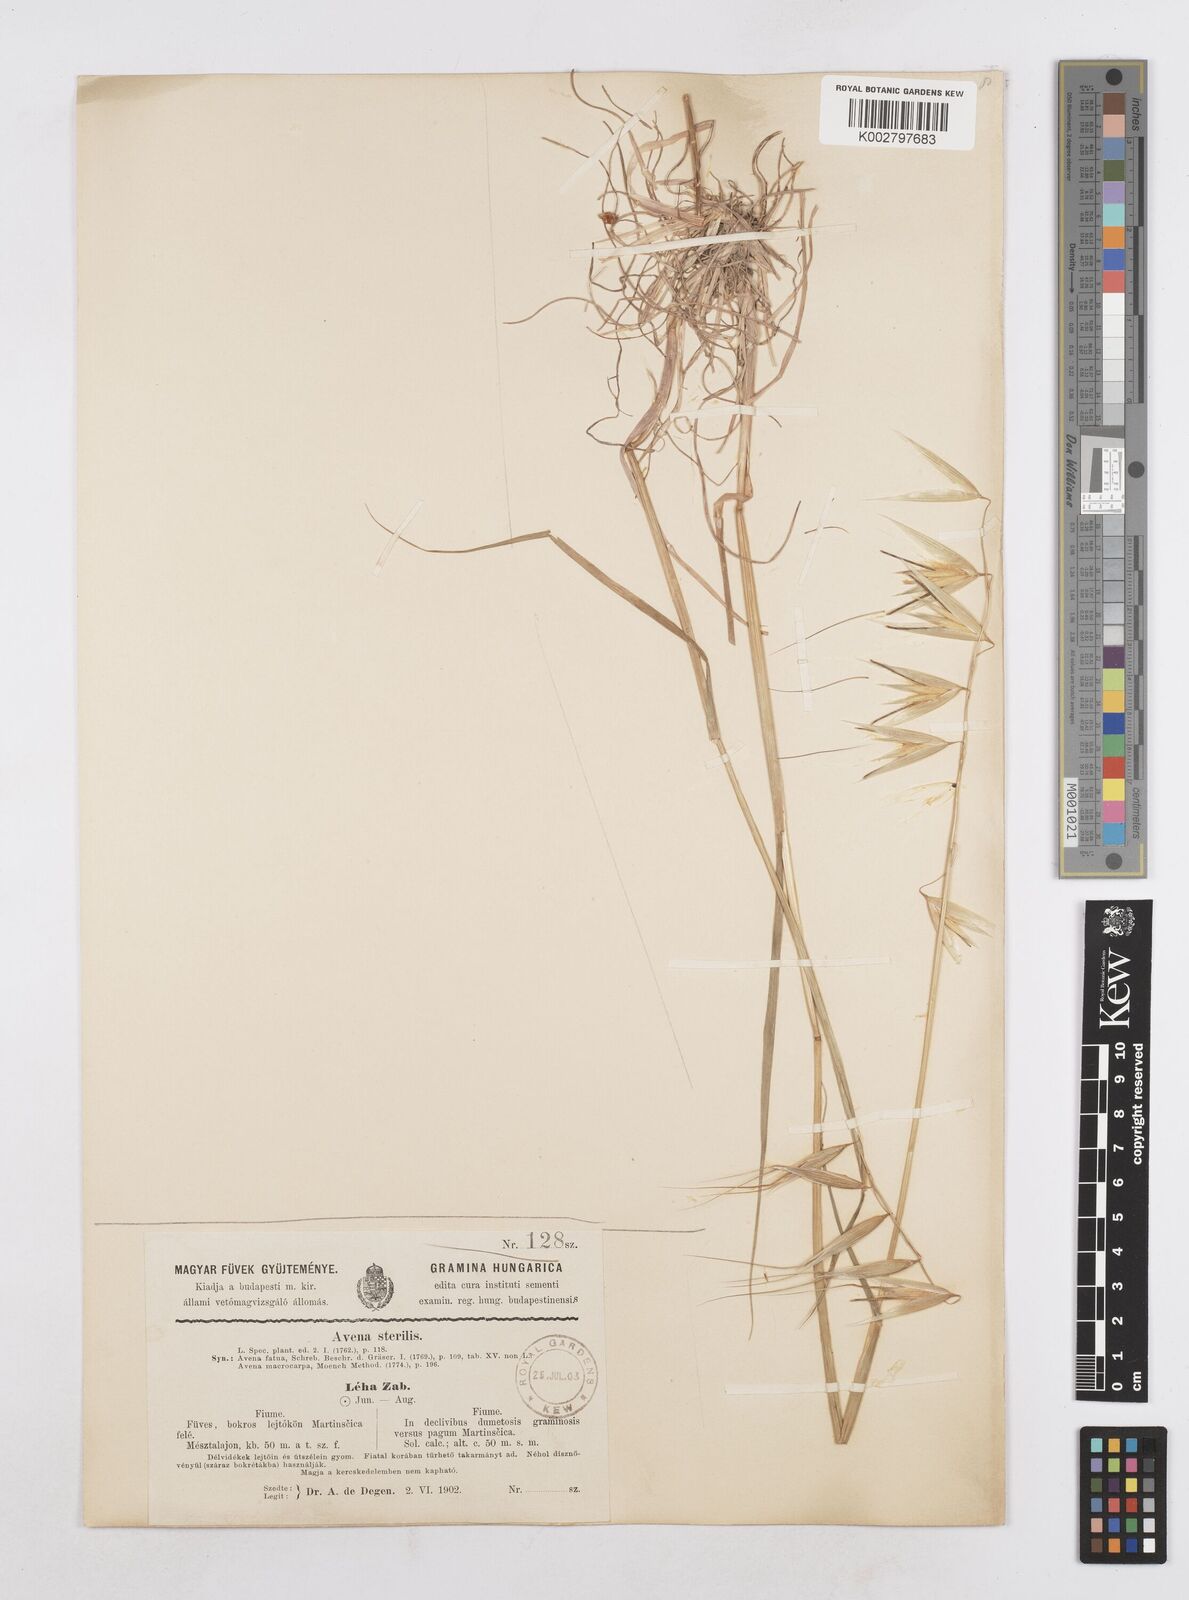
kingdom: Plantae
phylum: Tracheophyta
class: Liliopsida
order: Poales
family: Poaceae
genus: Avena
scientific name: Avena sterilis
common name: Animated oat
